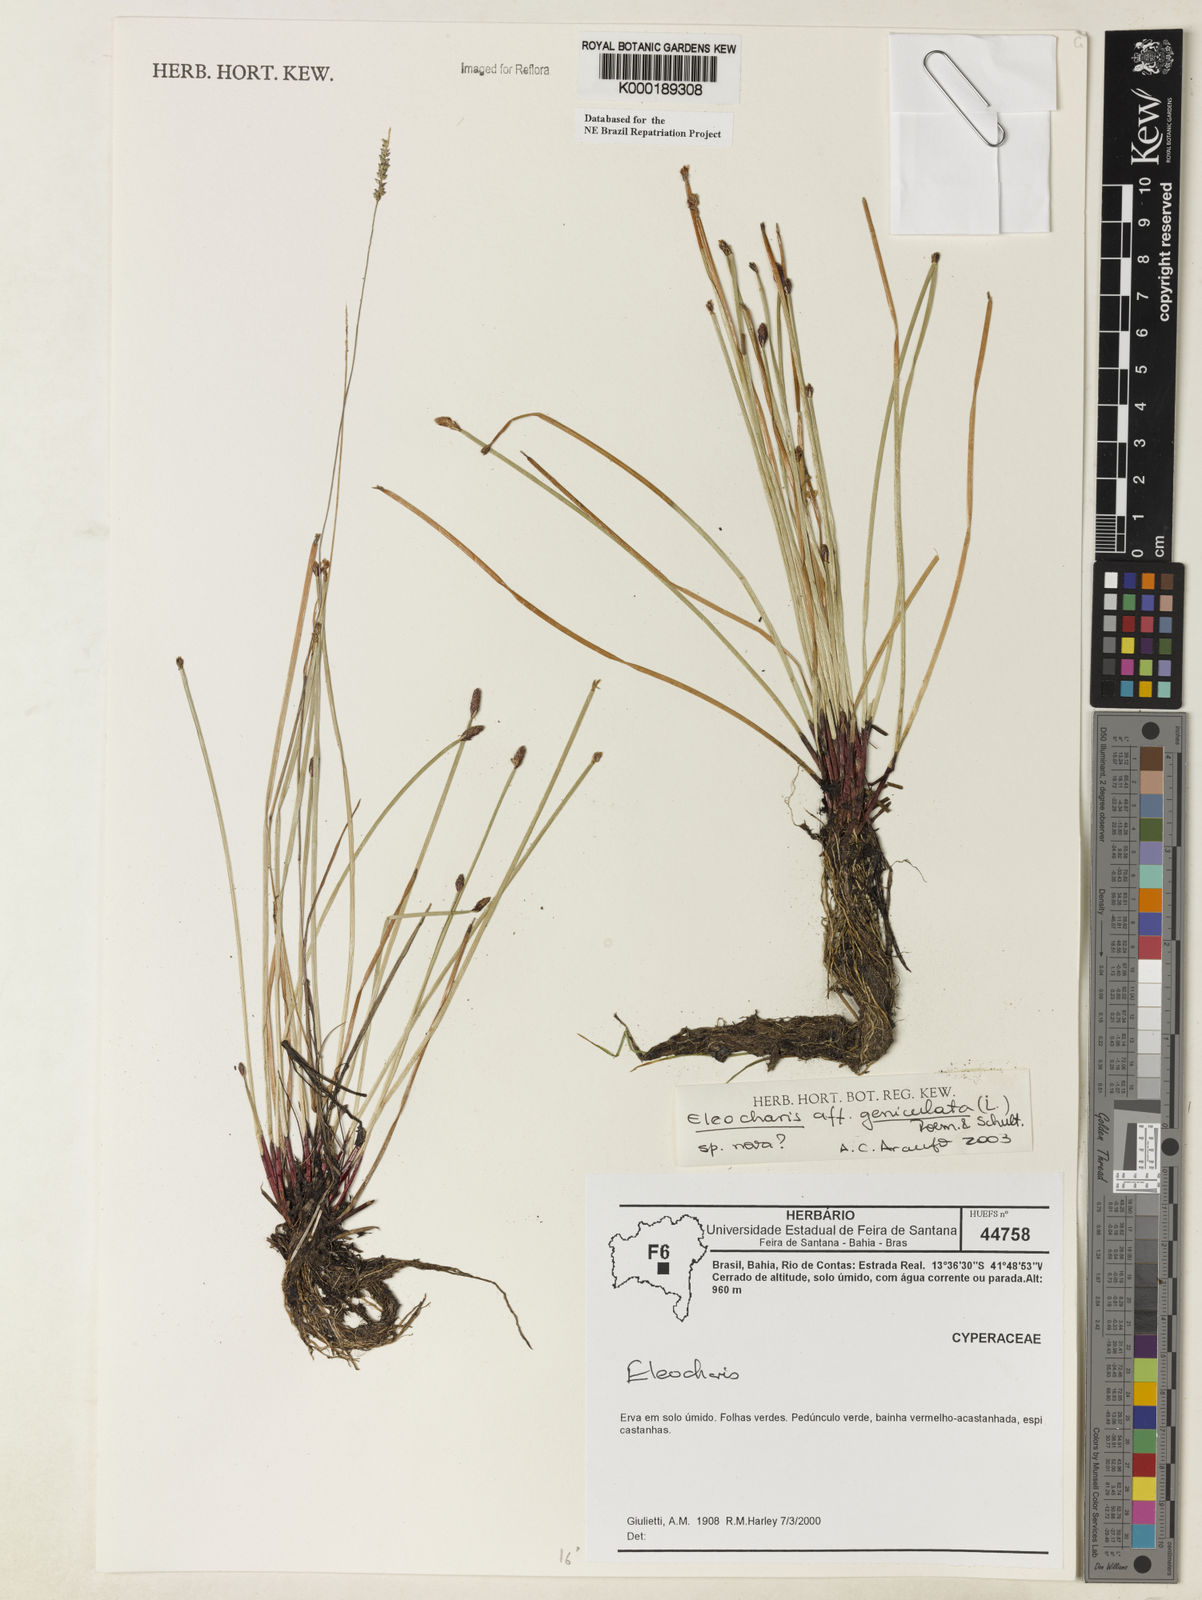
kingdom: Plantae
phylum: Tracheophyta
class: Liliopsida
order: Poales
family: Cyperaceae
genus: Eleocharis
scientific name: Eleocharis geniculata
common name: Canada spikesedge
